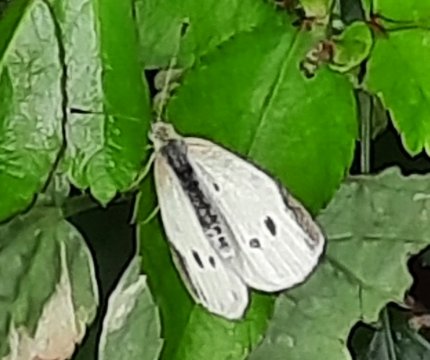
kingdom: Animalia
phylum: Arthropoda
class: Insecta
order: Lepidoptera
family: Pieridae
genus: Pieris
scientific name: Pieris rapae
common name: Cabbage White
